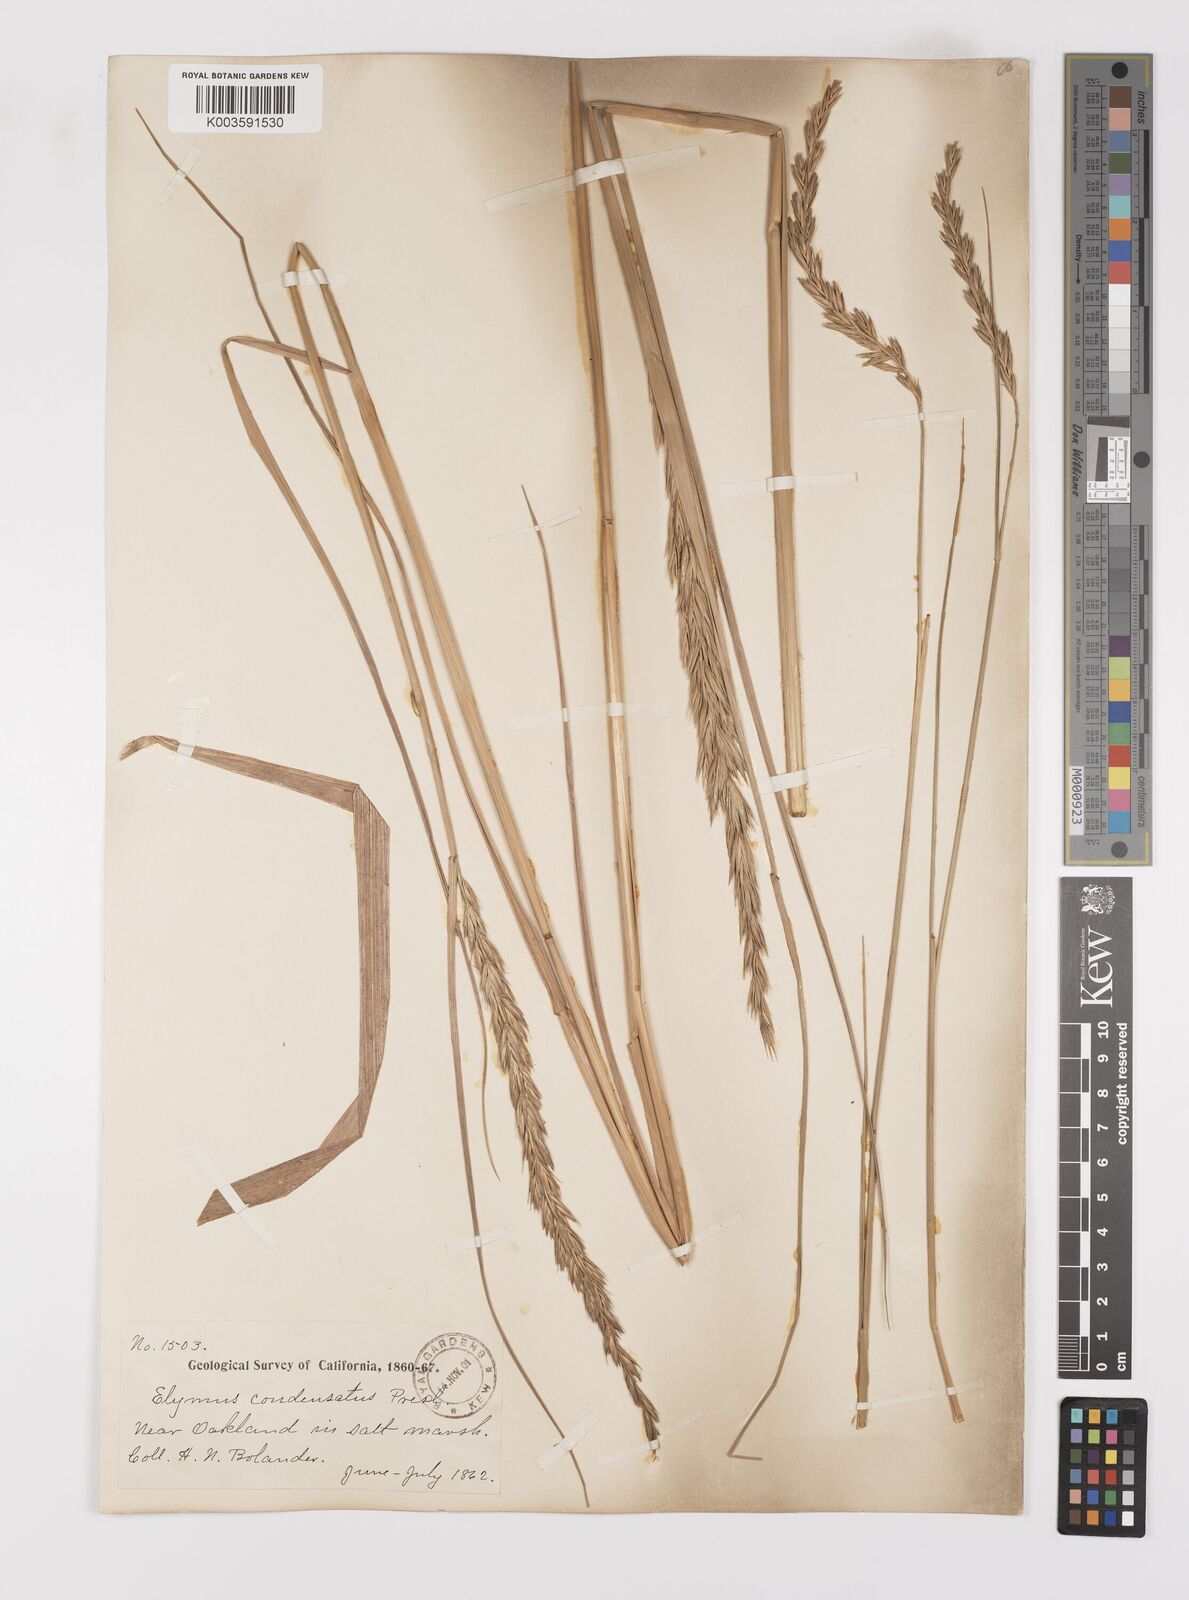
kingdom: Plantae
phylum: Tracheophyta
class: Liliopsida
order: Poales
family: Poaceae
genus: Leymus
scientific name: Leymus condensatus
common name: Giant wild rye
